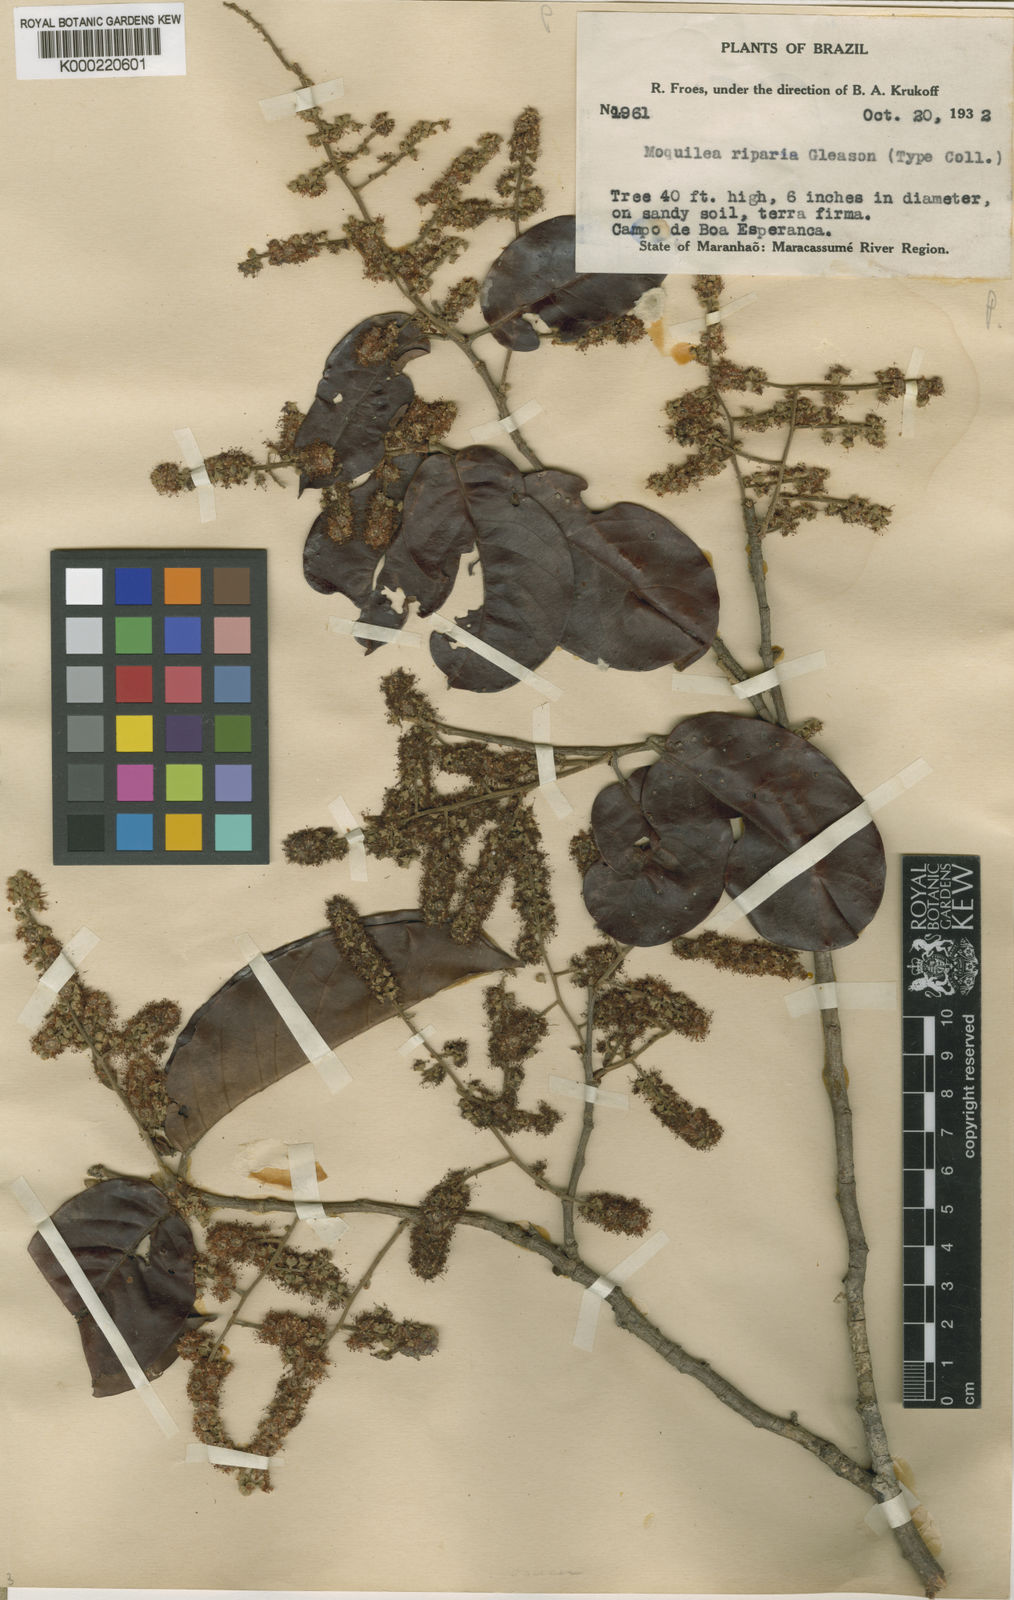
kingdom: Plantae
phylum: Tracheophyta
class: Magnoliopsida
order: Malpighiales
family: Chrysobalanaceae
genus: Moquilea
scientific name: Moquilea minutiflora
